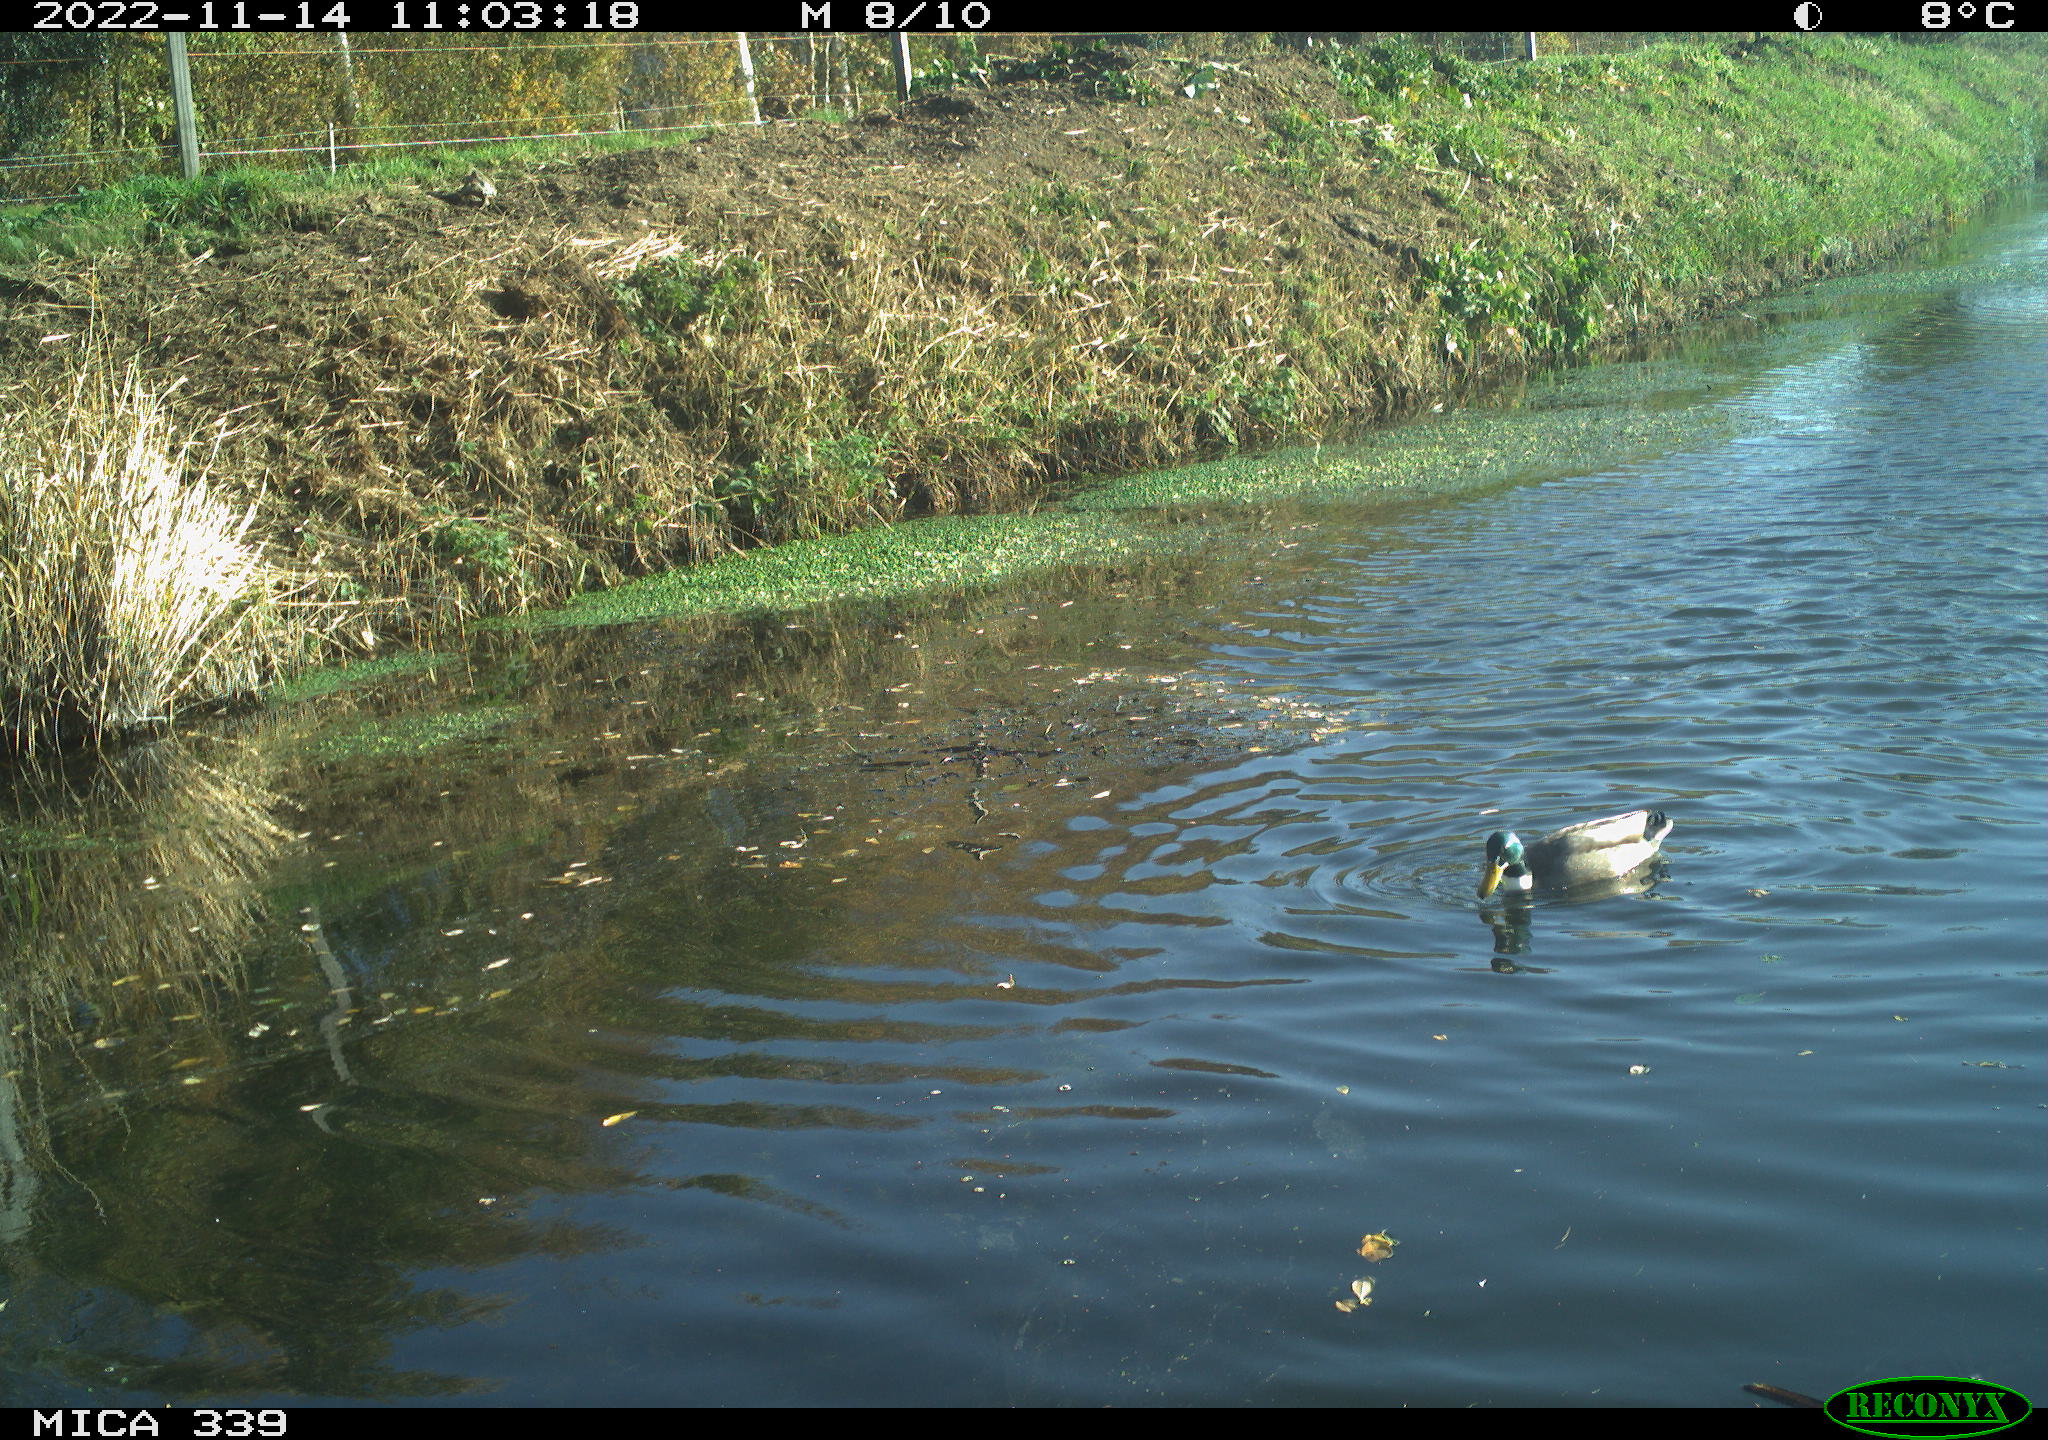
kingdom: Animalia
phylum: Chordata
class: Aves
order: Anseriformes
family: Anatidae
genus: Anas
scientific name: Anas platyrhynchos
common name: Mallard
